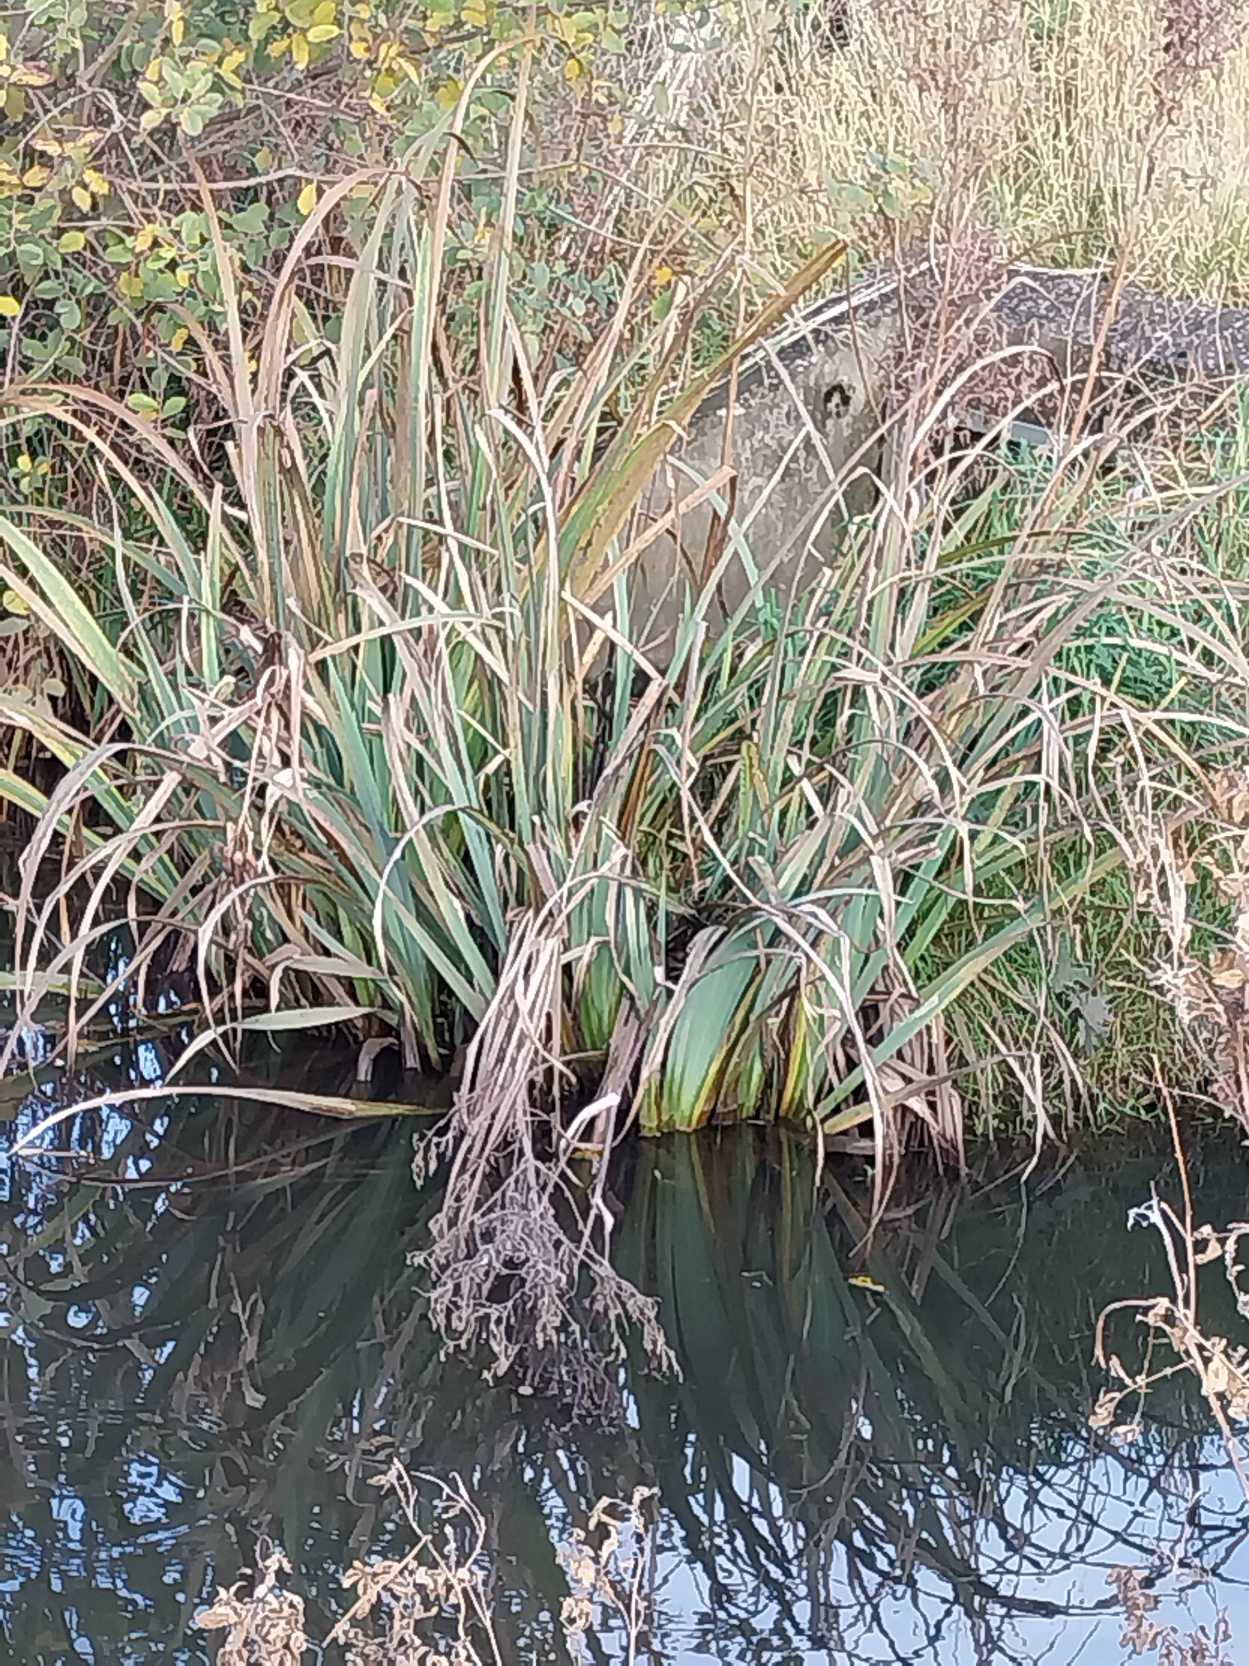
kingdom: Plantae
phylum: Tracheophyta
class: Liliopsida
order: Asparagales
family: Iridaceae
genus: Iris
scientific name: Iris pseudacorus
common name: Gul iris
